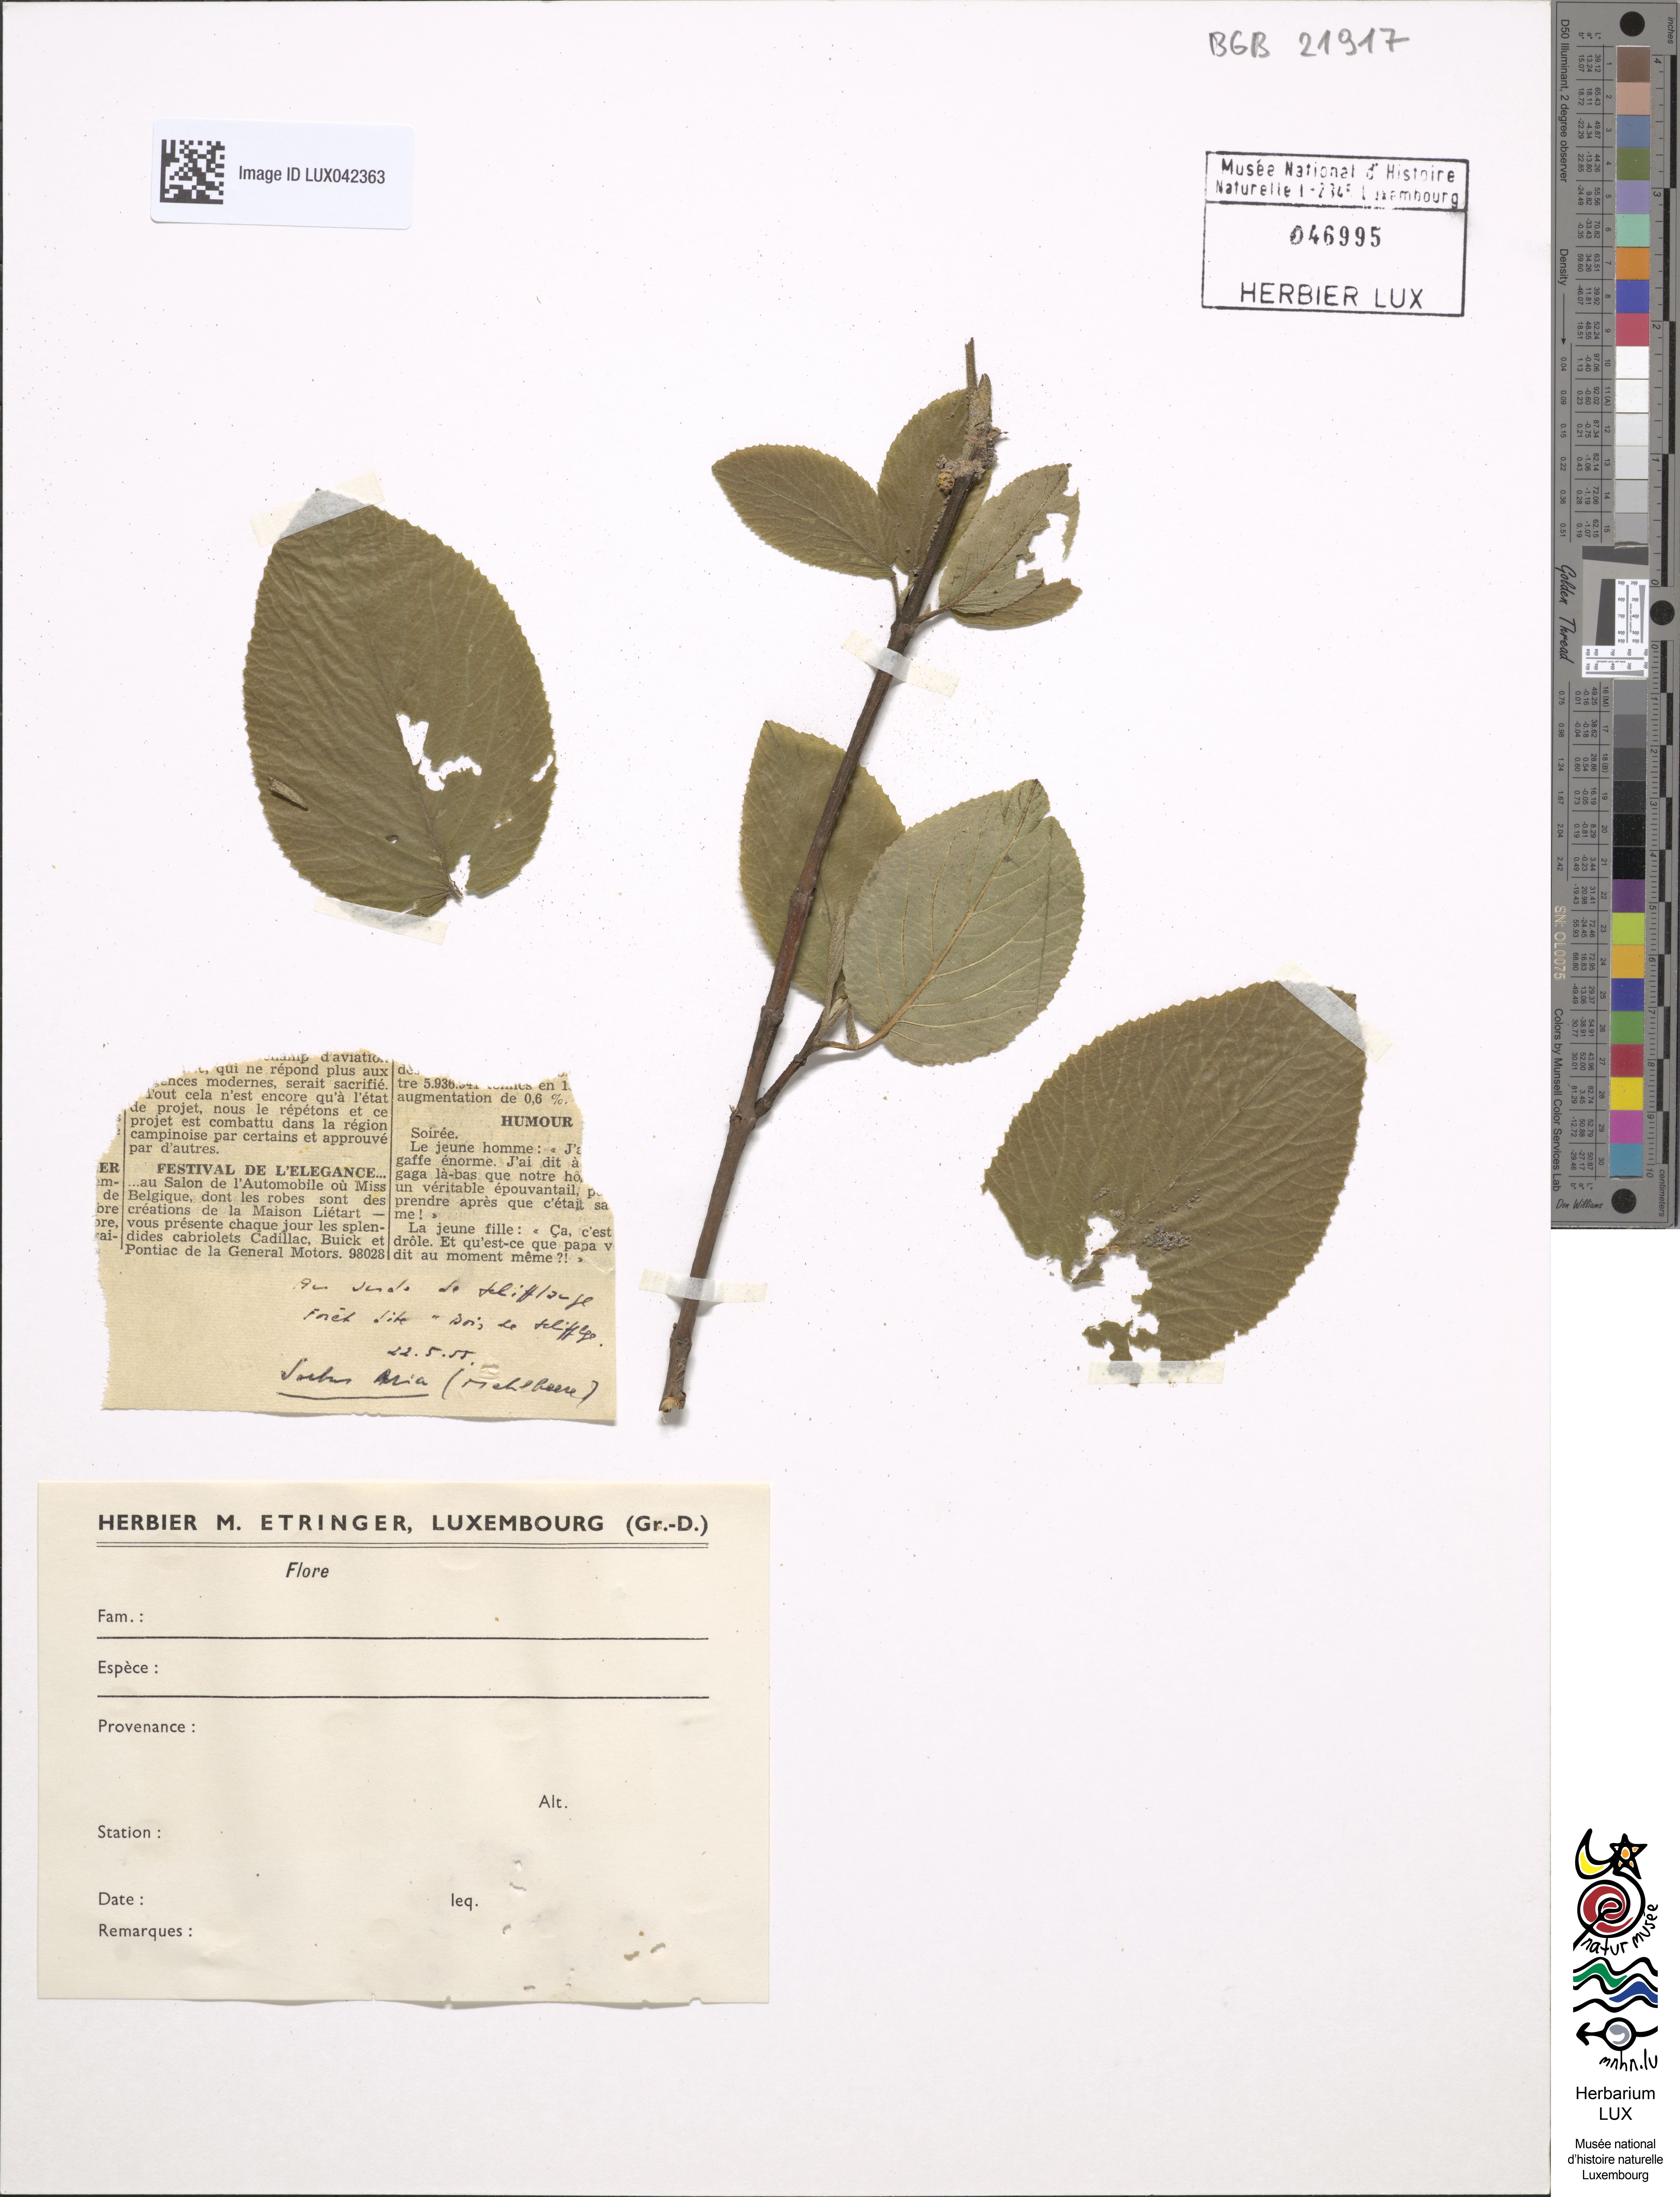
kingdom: Plantae
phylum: Tracheophyta
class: Magnoliopsida
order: Rosales
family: Rosaceae
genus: Aria
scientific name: Aria edulis
